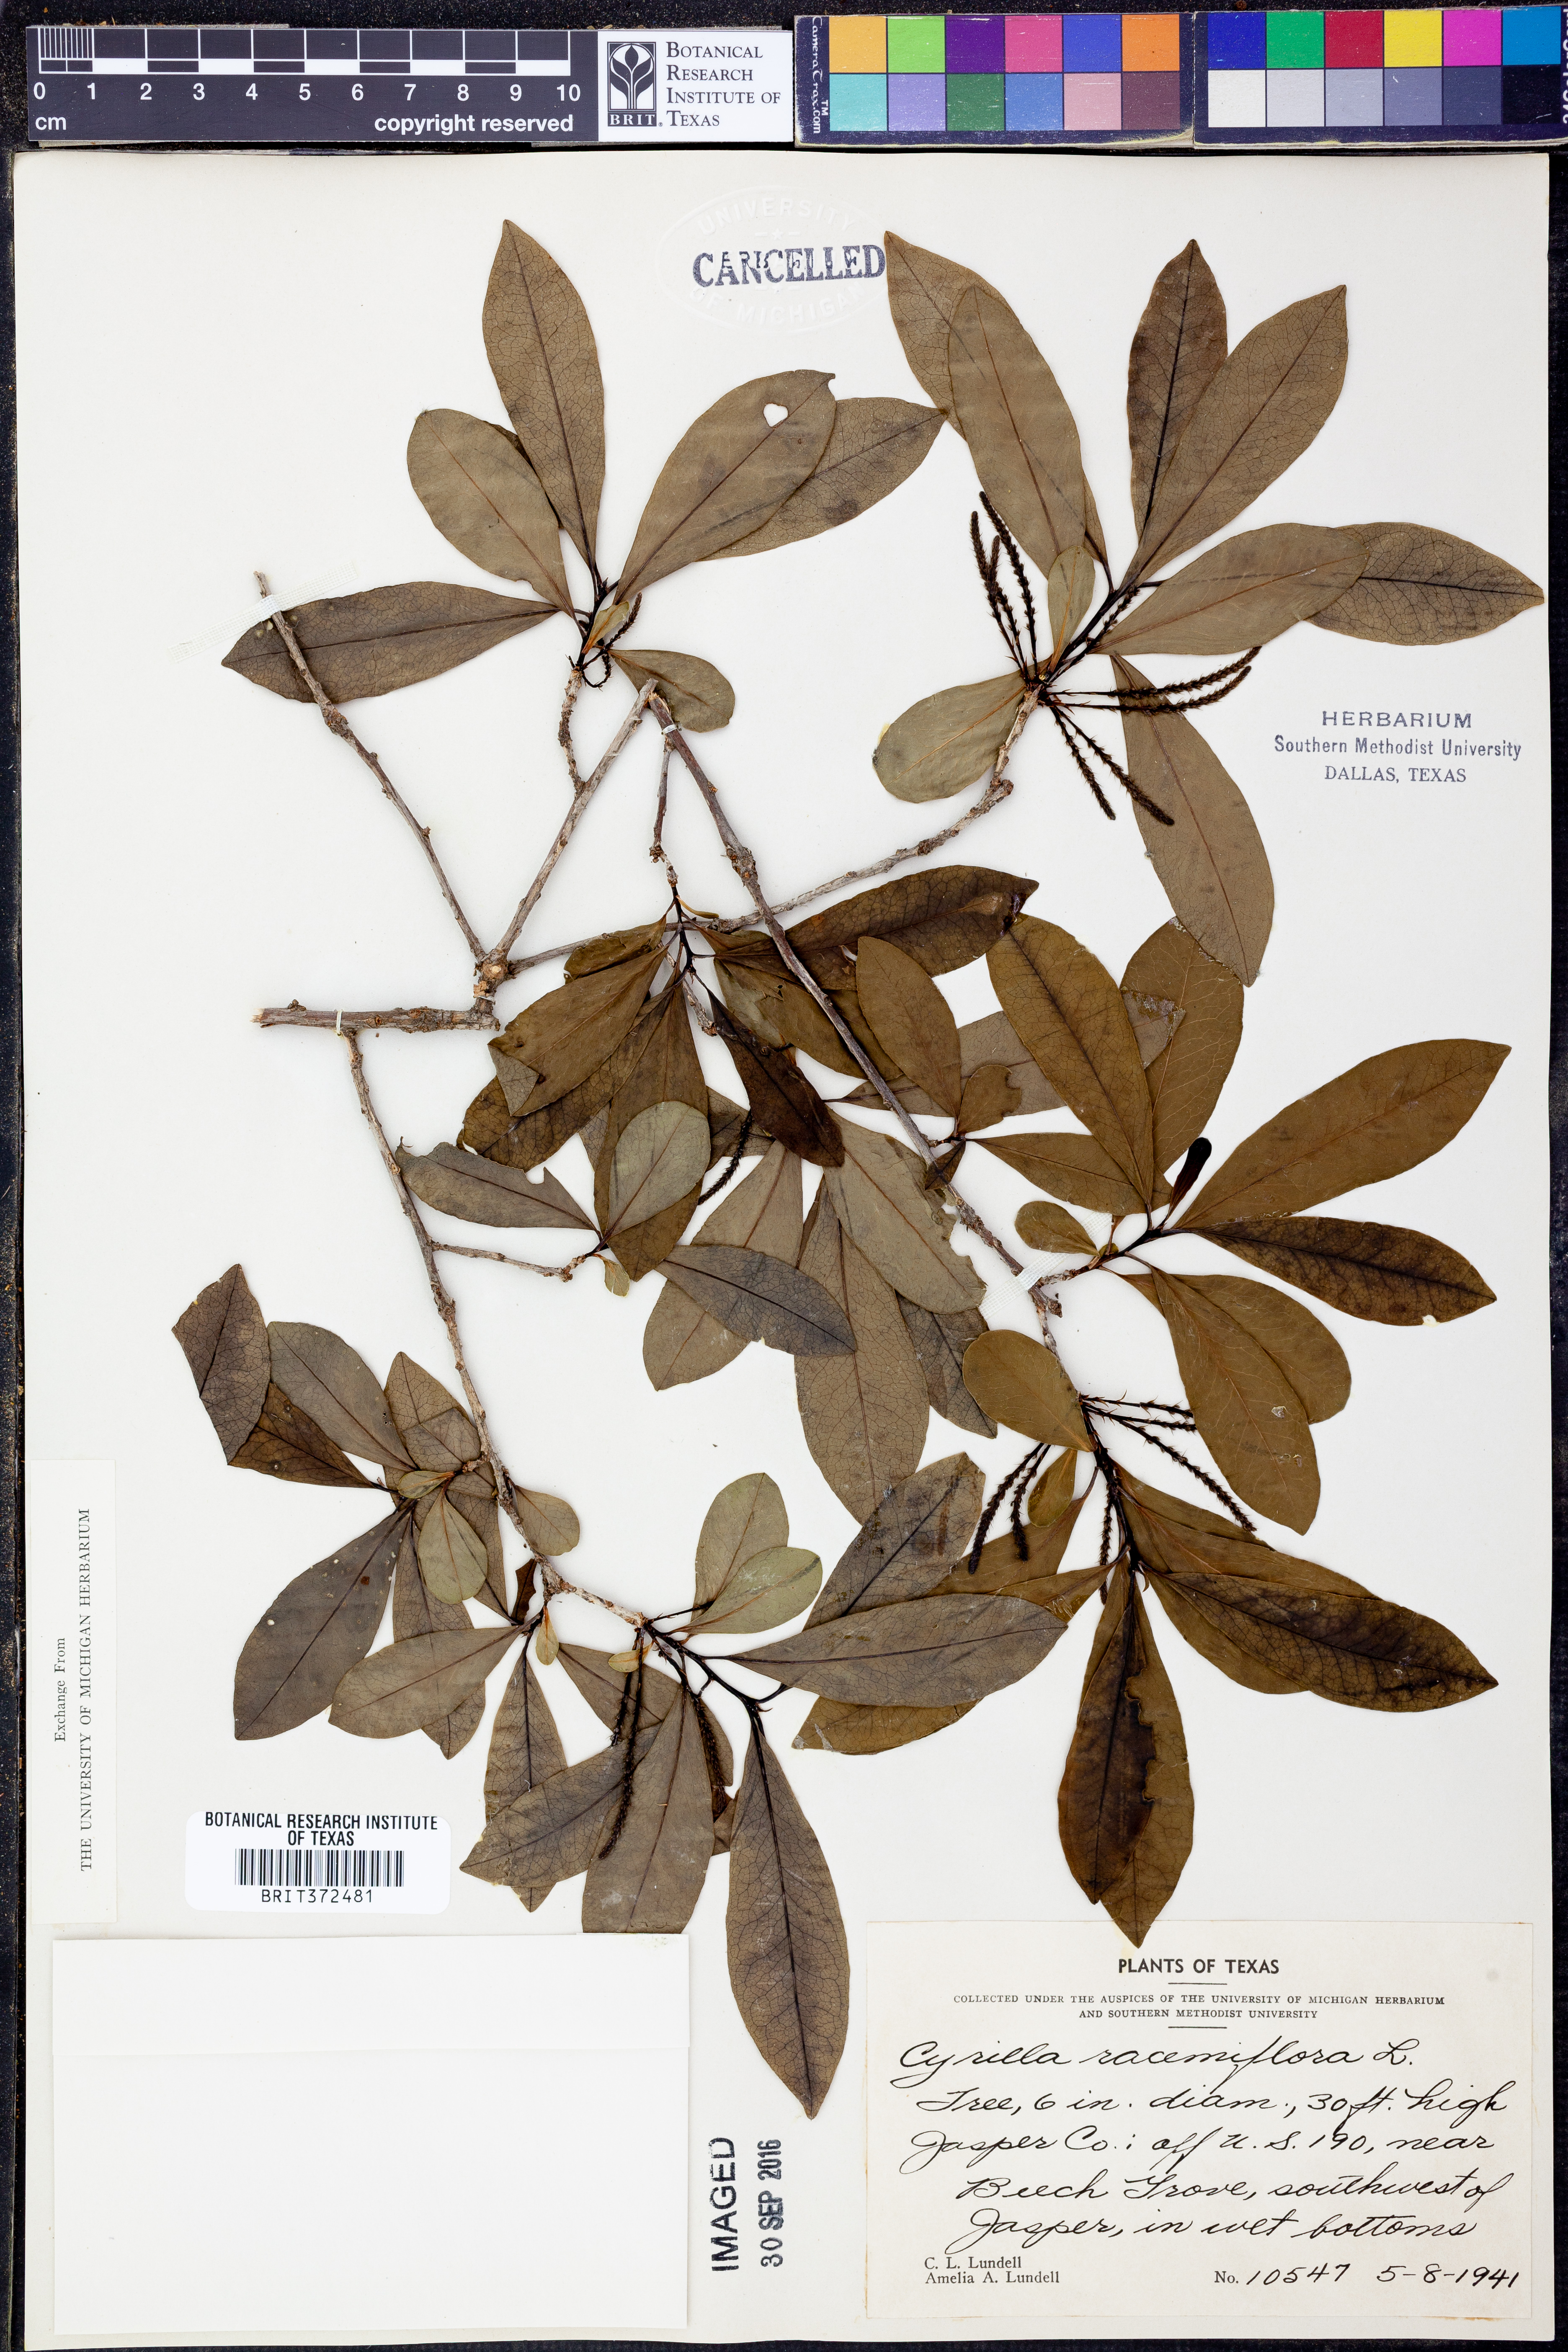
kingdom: Plantae
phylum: Tracheophyta
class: Magnoliopsida
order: Ericales
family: Cyrillaceae
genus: Cyrilla
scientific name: Cyrilla racemiflora
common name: Black titi
